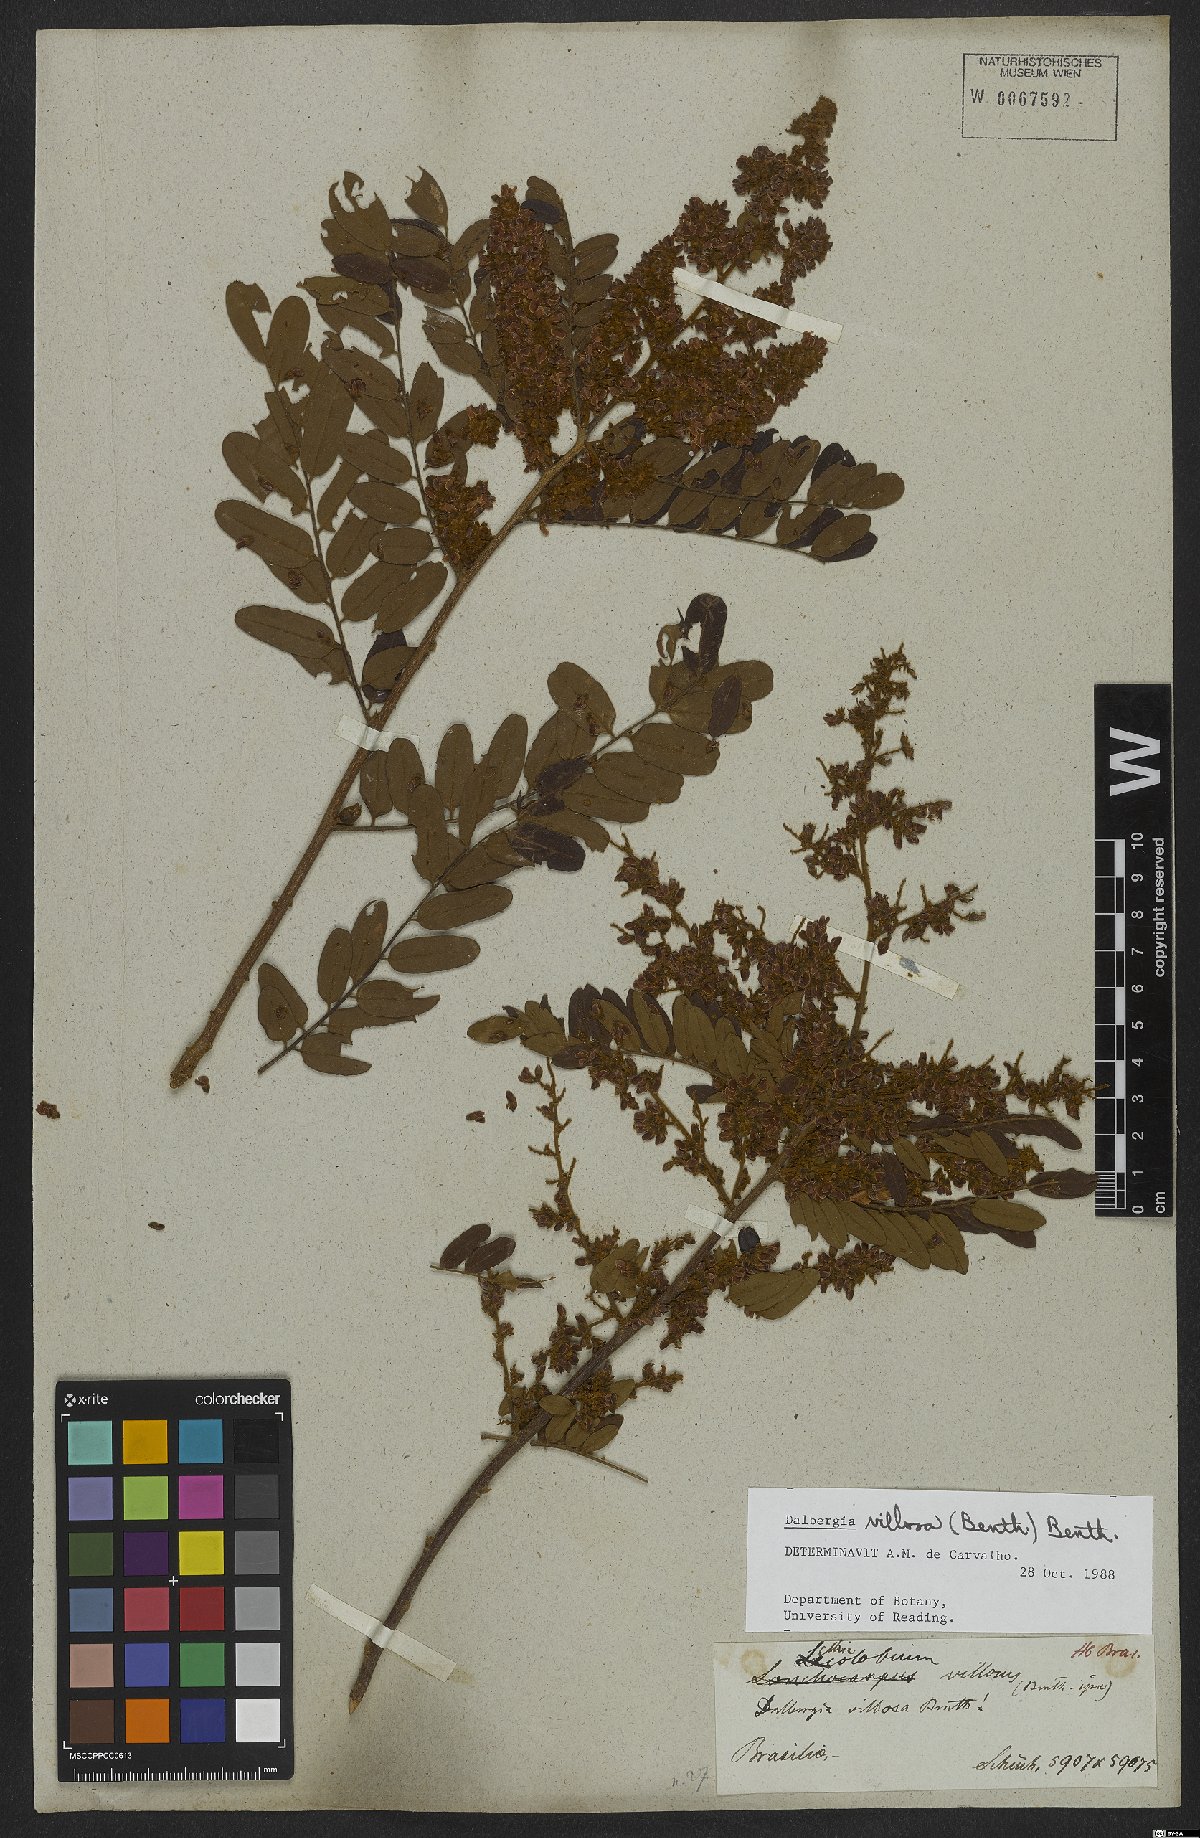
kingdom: Plantae
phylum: Tracheophyta
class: Magnoliopsida
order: Fabales
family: Fabaceae
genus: Dalbergia
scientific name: Dalbergia villosa
